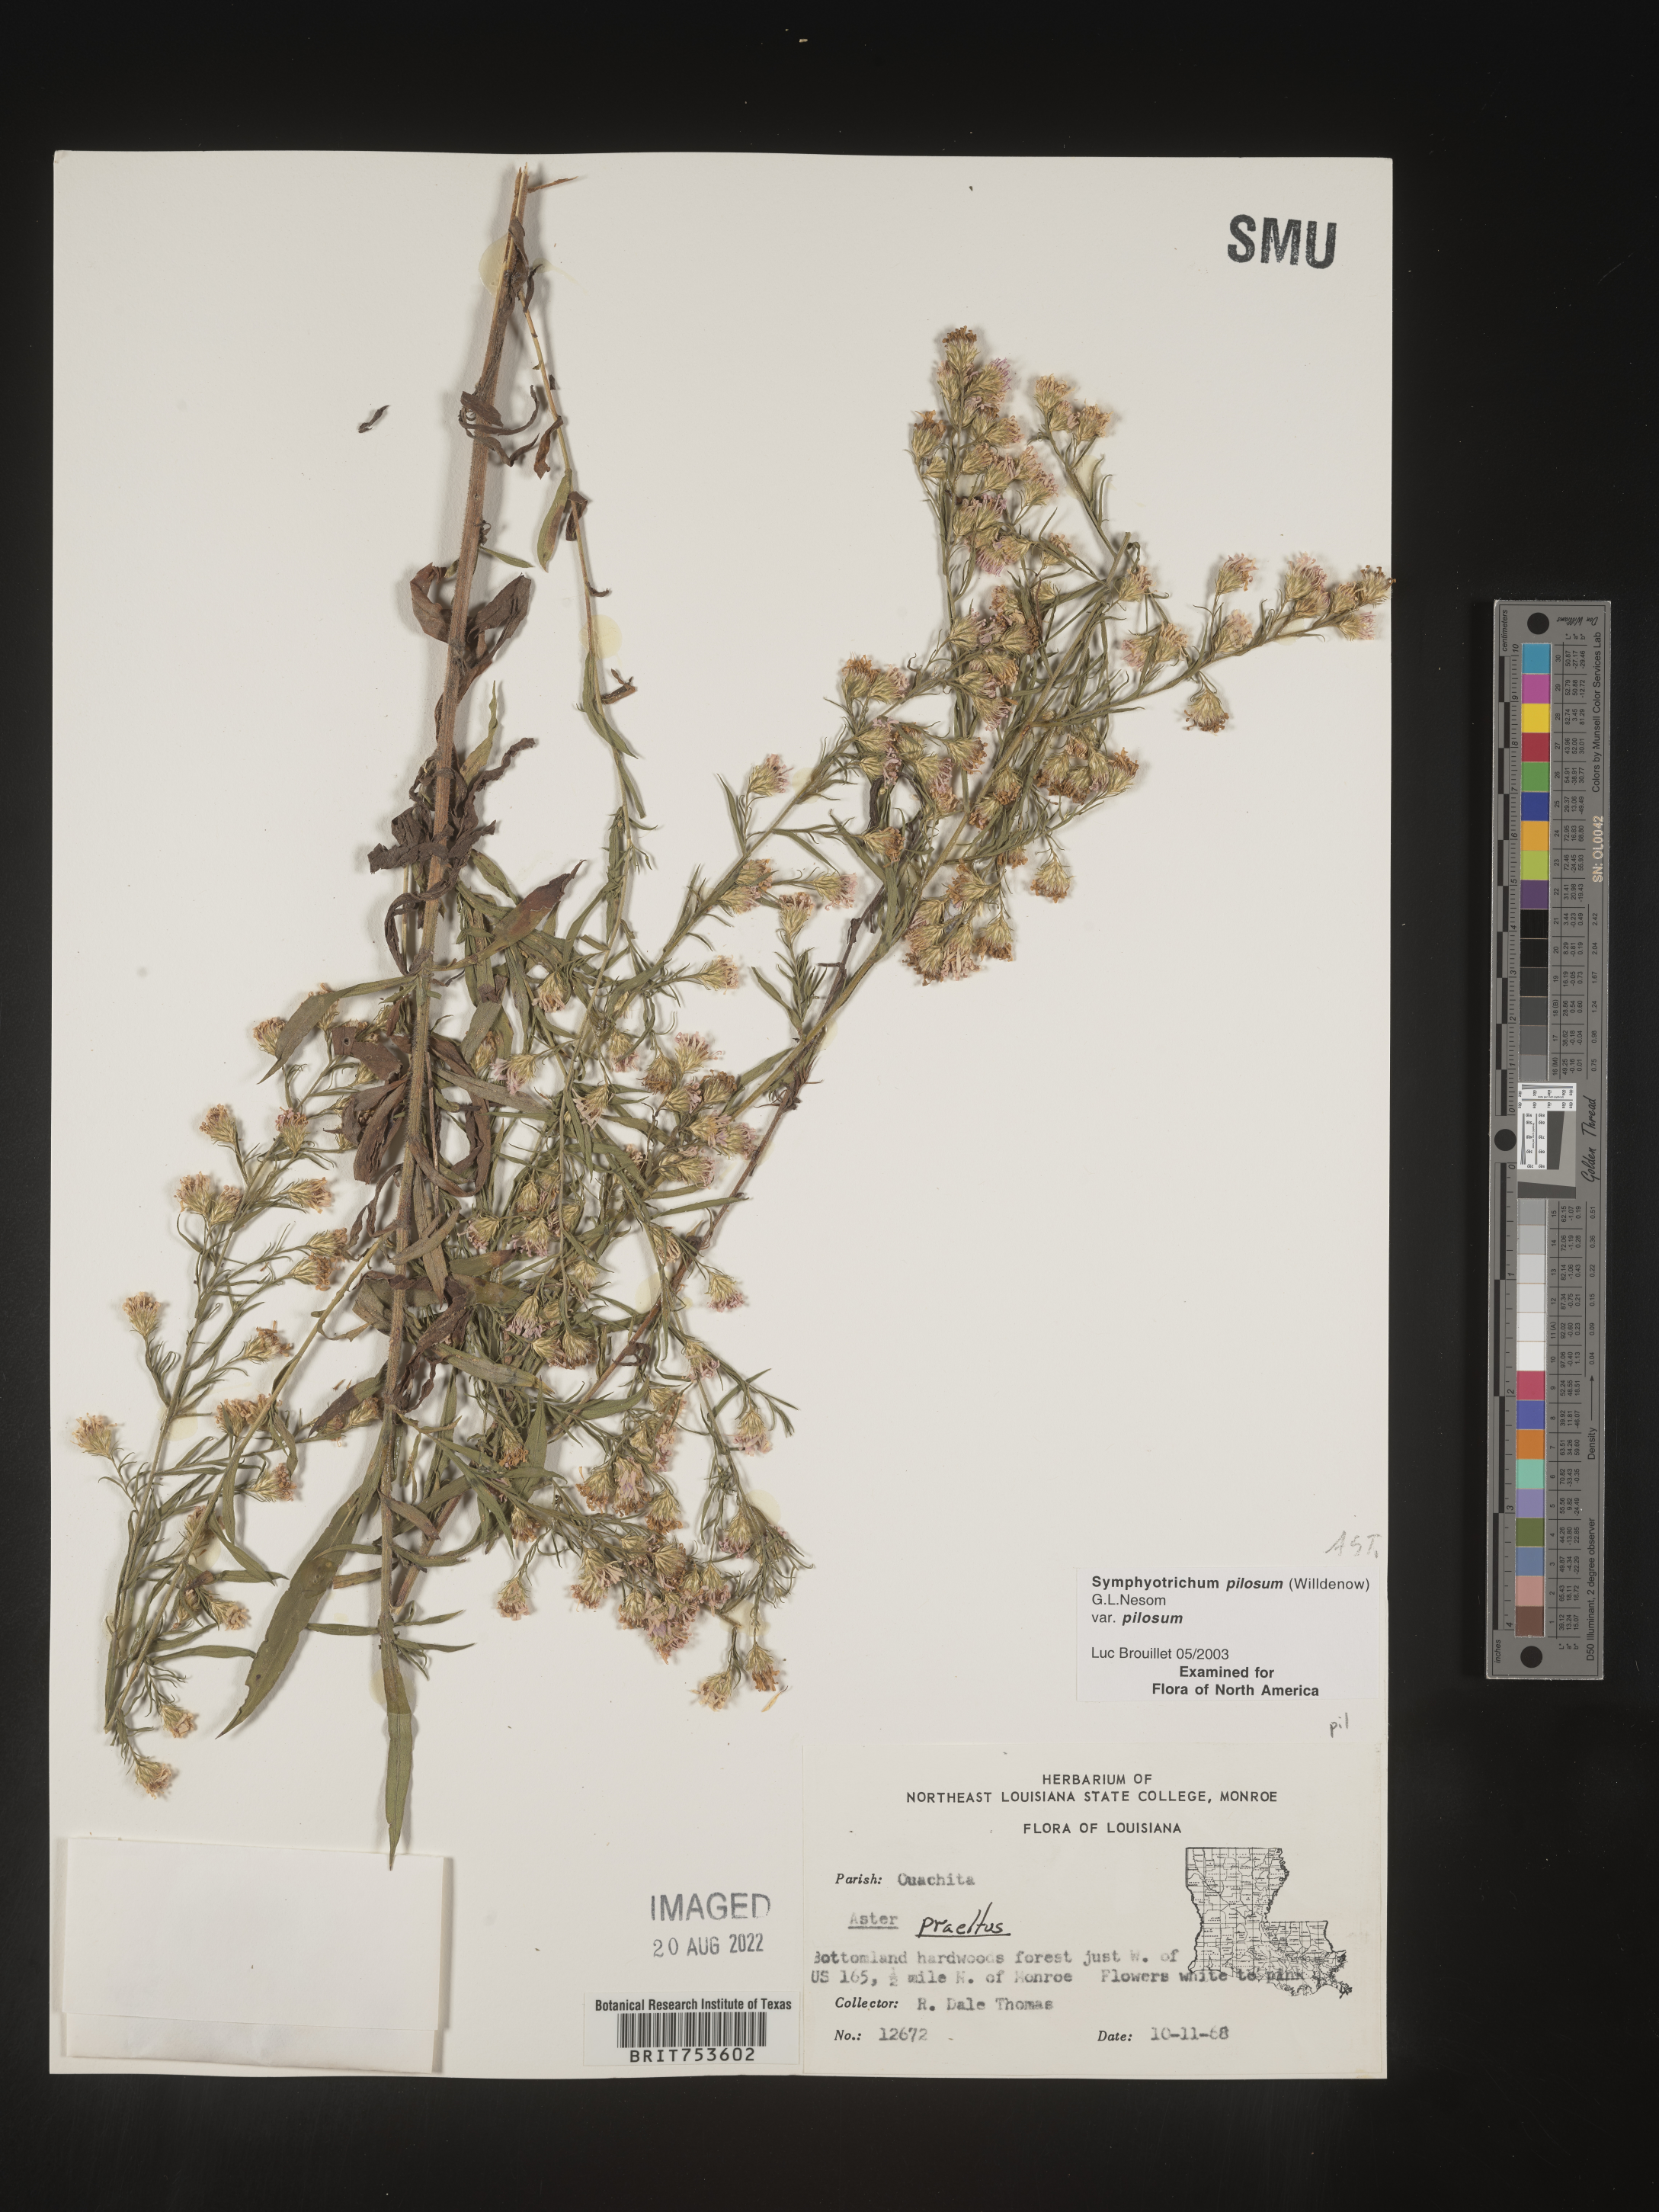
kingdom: Plantae
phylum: Tracheophyta
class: Magnoliopsida
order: Asterales
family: Asteraceae
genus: Symphyotrichum
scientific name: Symphyotrichum pilosum
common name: Awl aster
